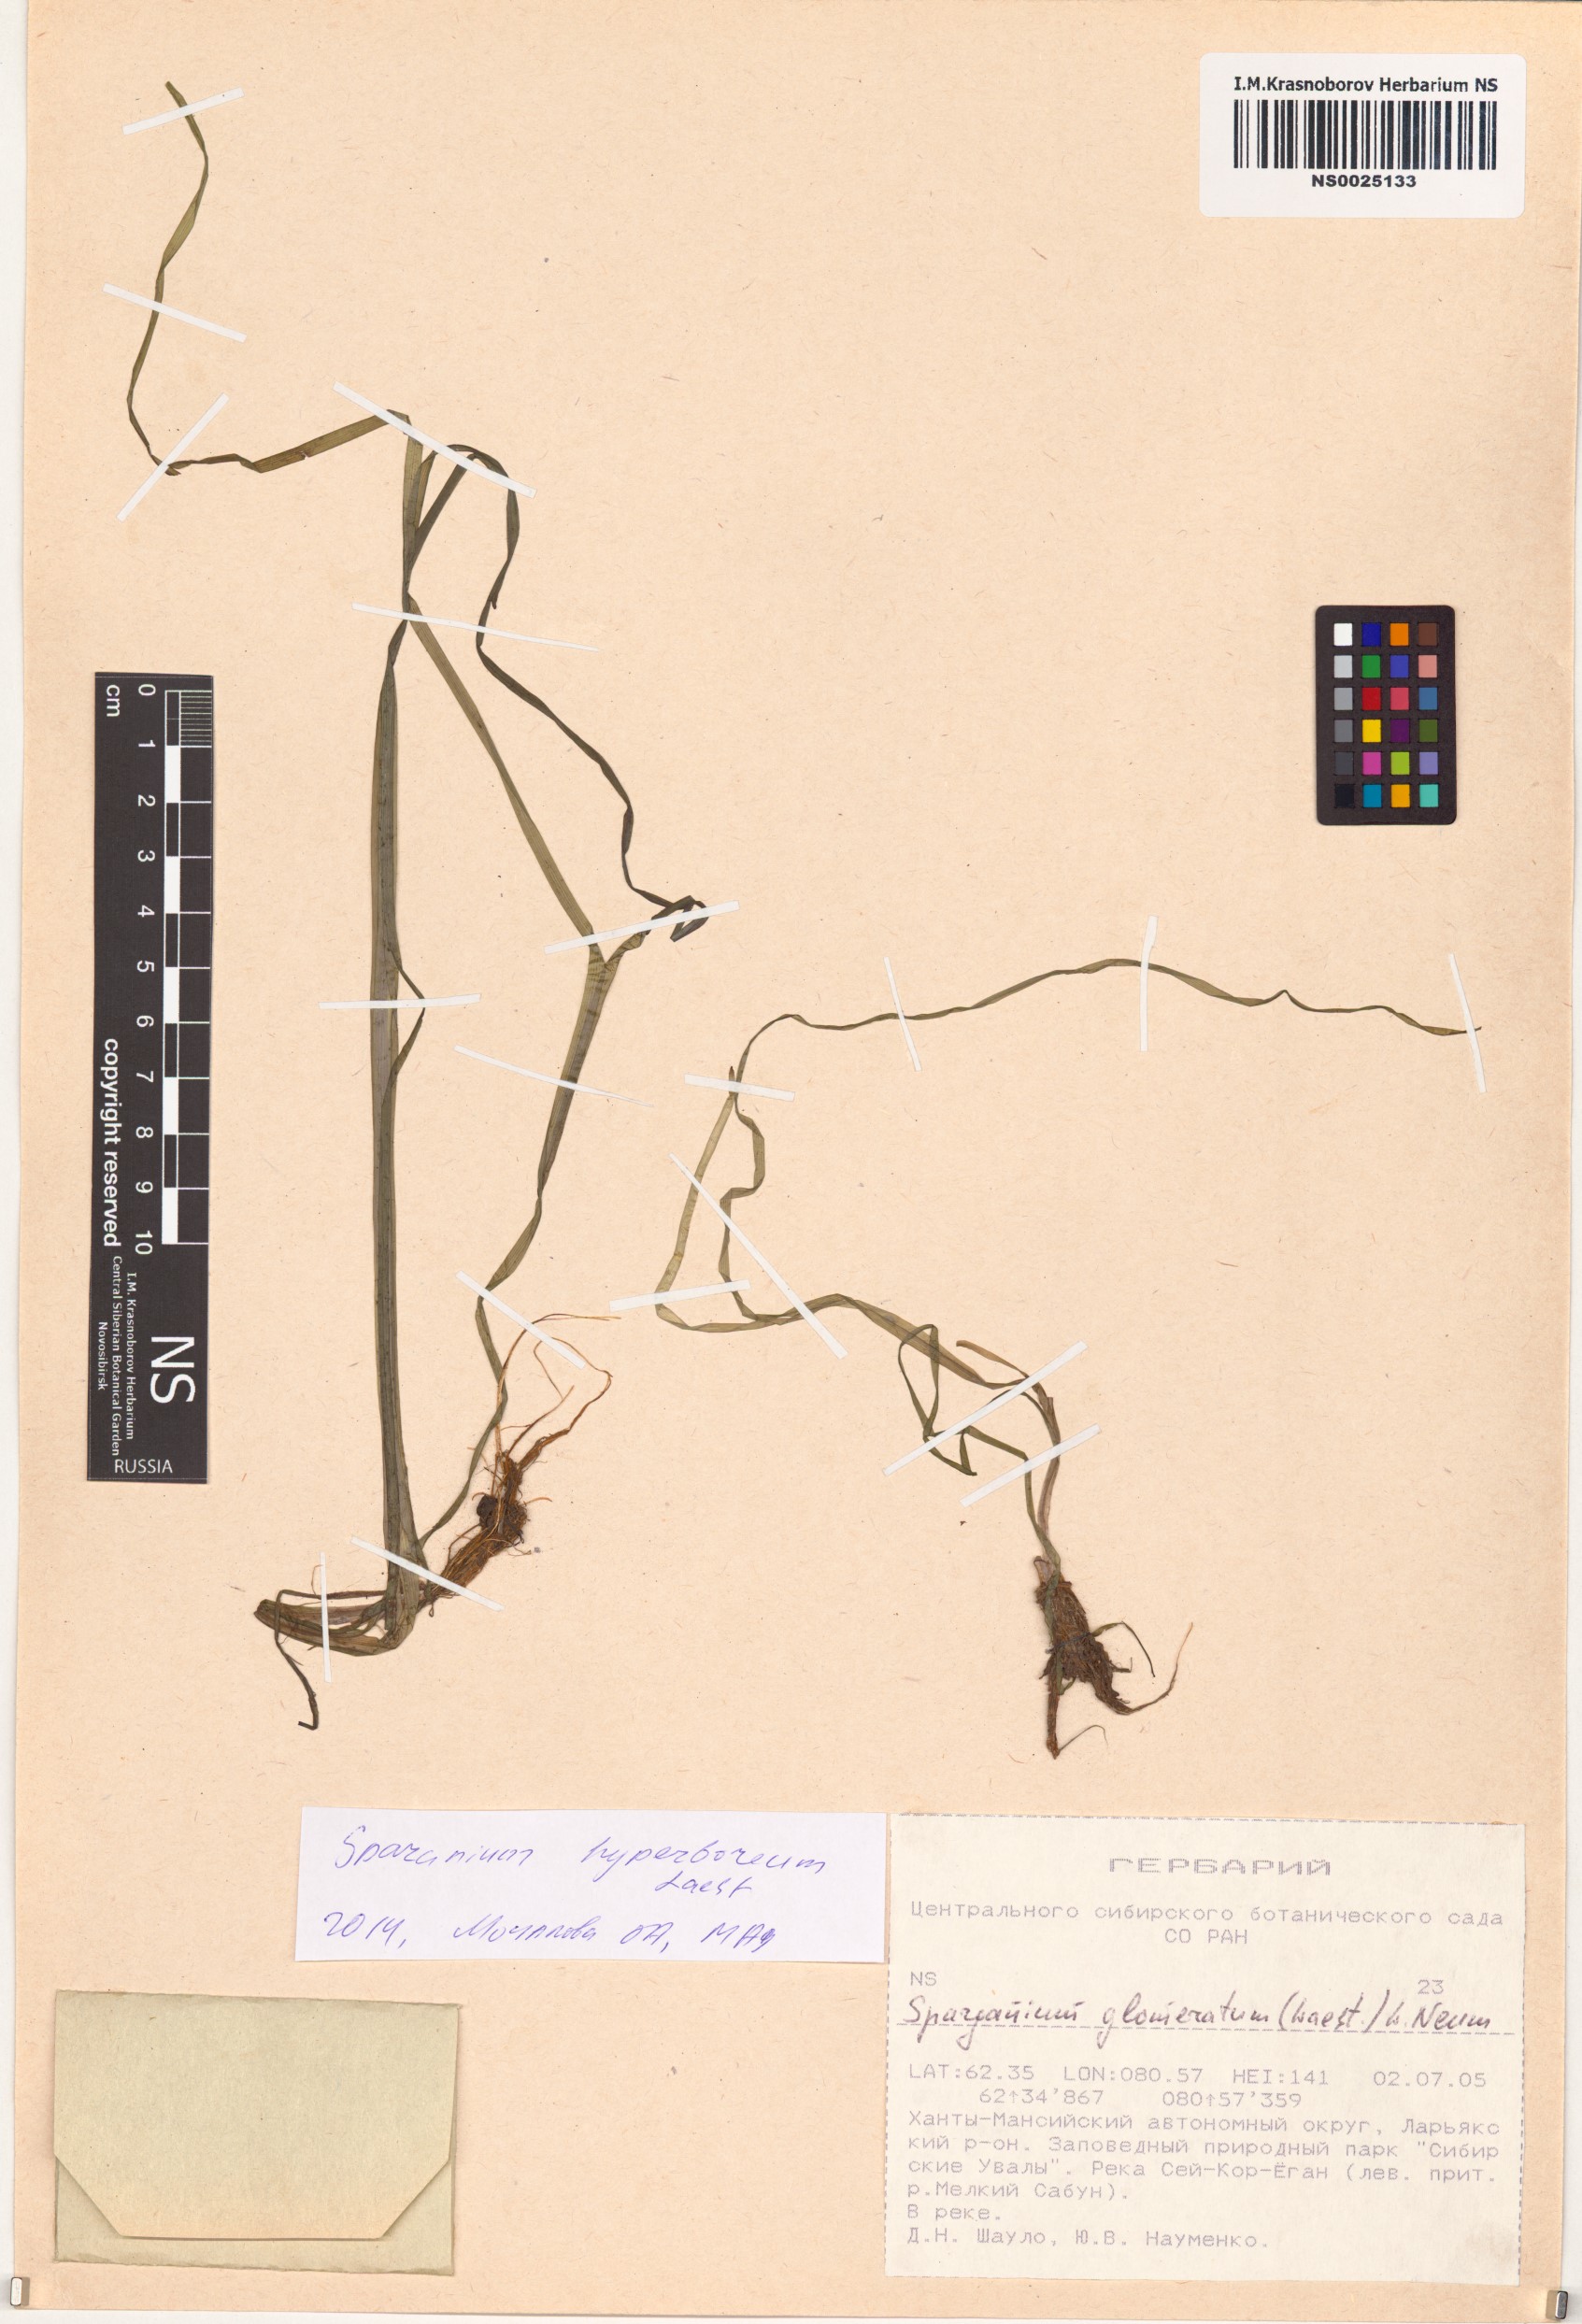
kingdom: Plantae
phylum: Tracheophyta
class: Liliopsida
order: Poales
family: Typhaceae
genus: Sparganium
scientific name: Sparganium hyperboreum
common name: Arctic burreed
